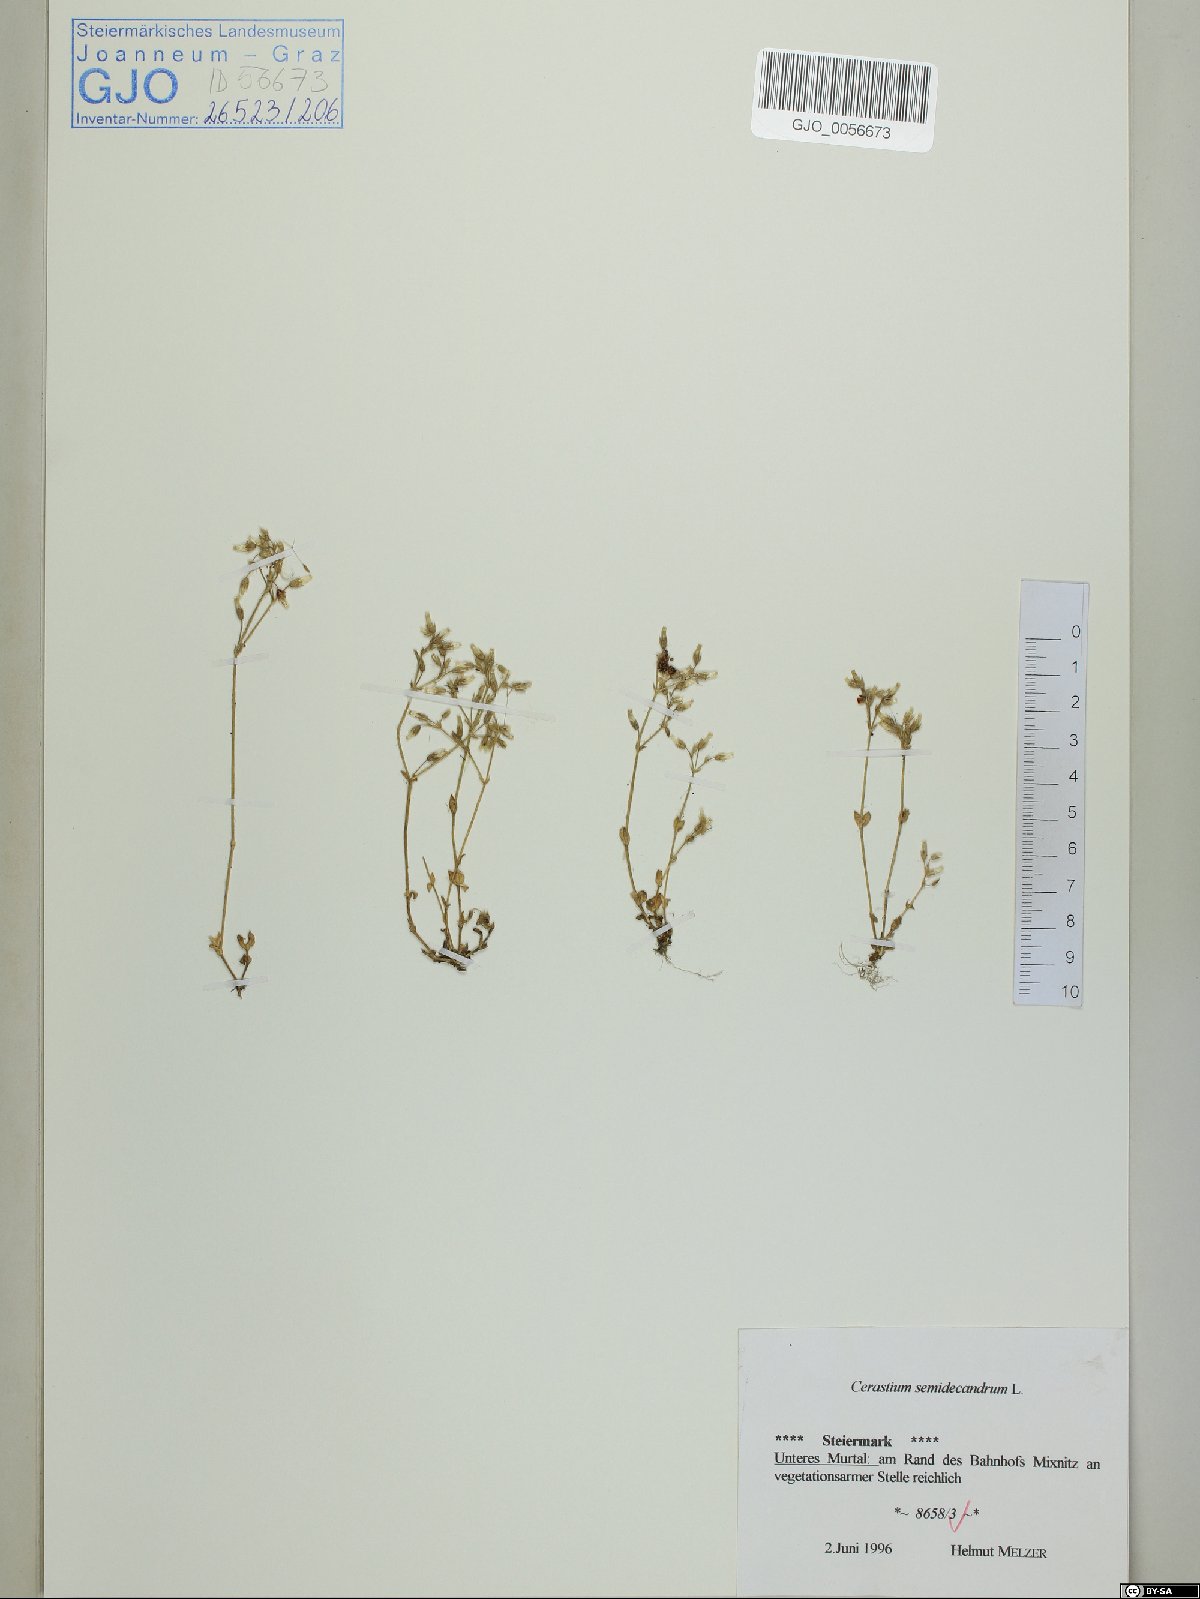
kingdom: Plantae
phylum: Tracheophyta
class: Magnoliopsida
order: Caryophyllales
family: Caryophyllaceae
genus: Cerastium
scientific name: Cerastium semidecandrum
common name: Little mouse-ear
